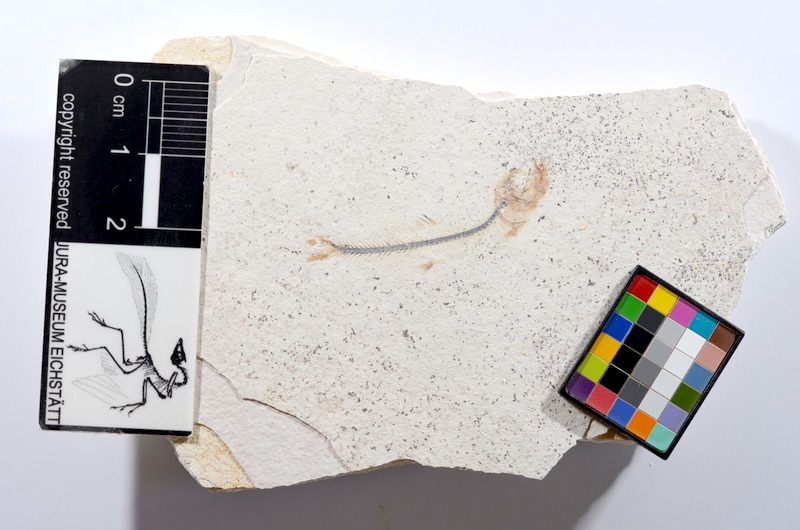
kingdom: Animalia
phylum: Chordata
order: Salmoniformes
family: Orthogonikleithridae
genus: Orthogonikleithrus
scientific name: Orthogonikleithrus hoelli
